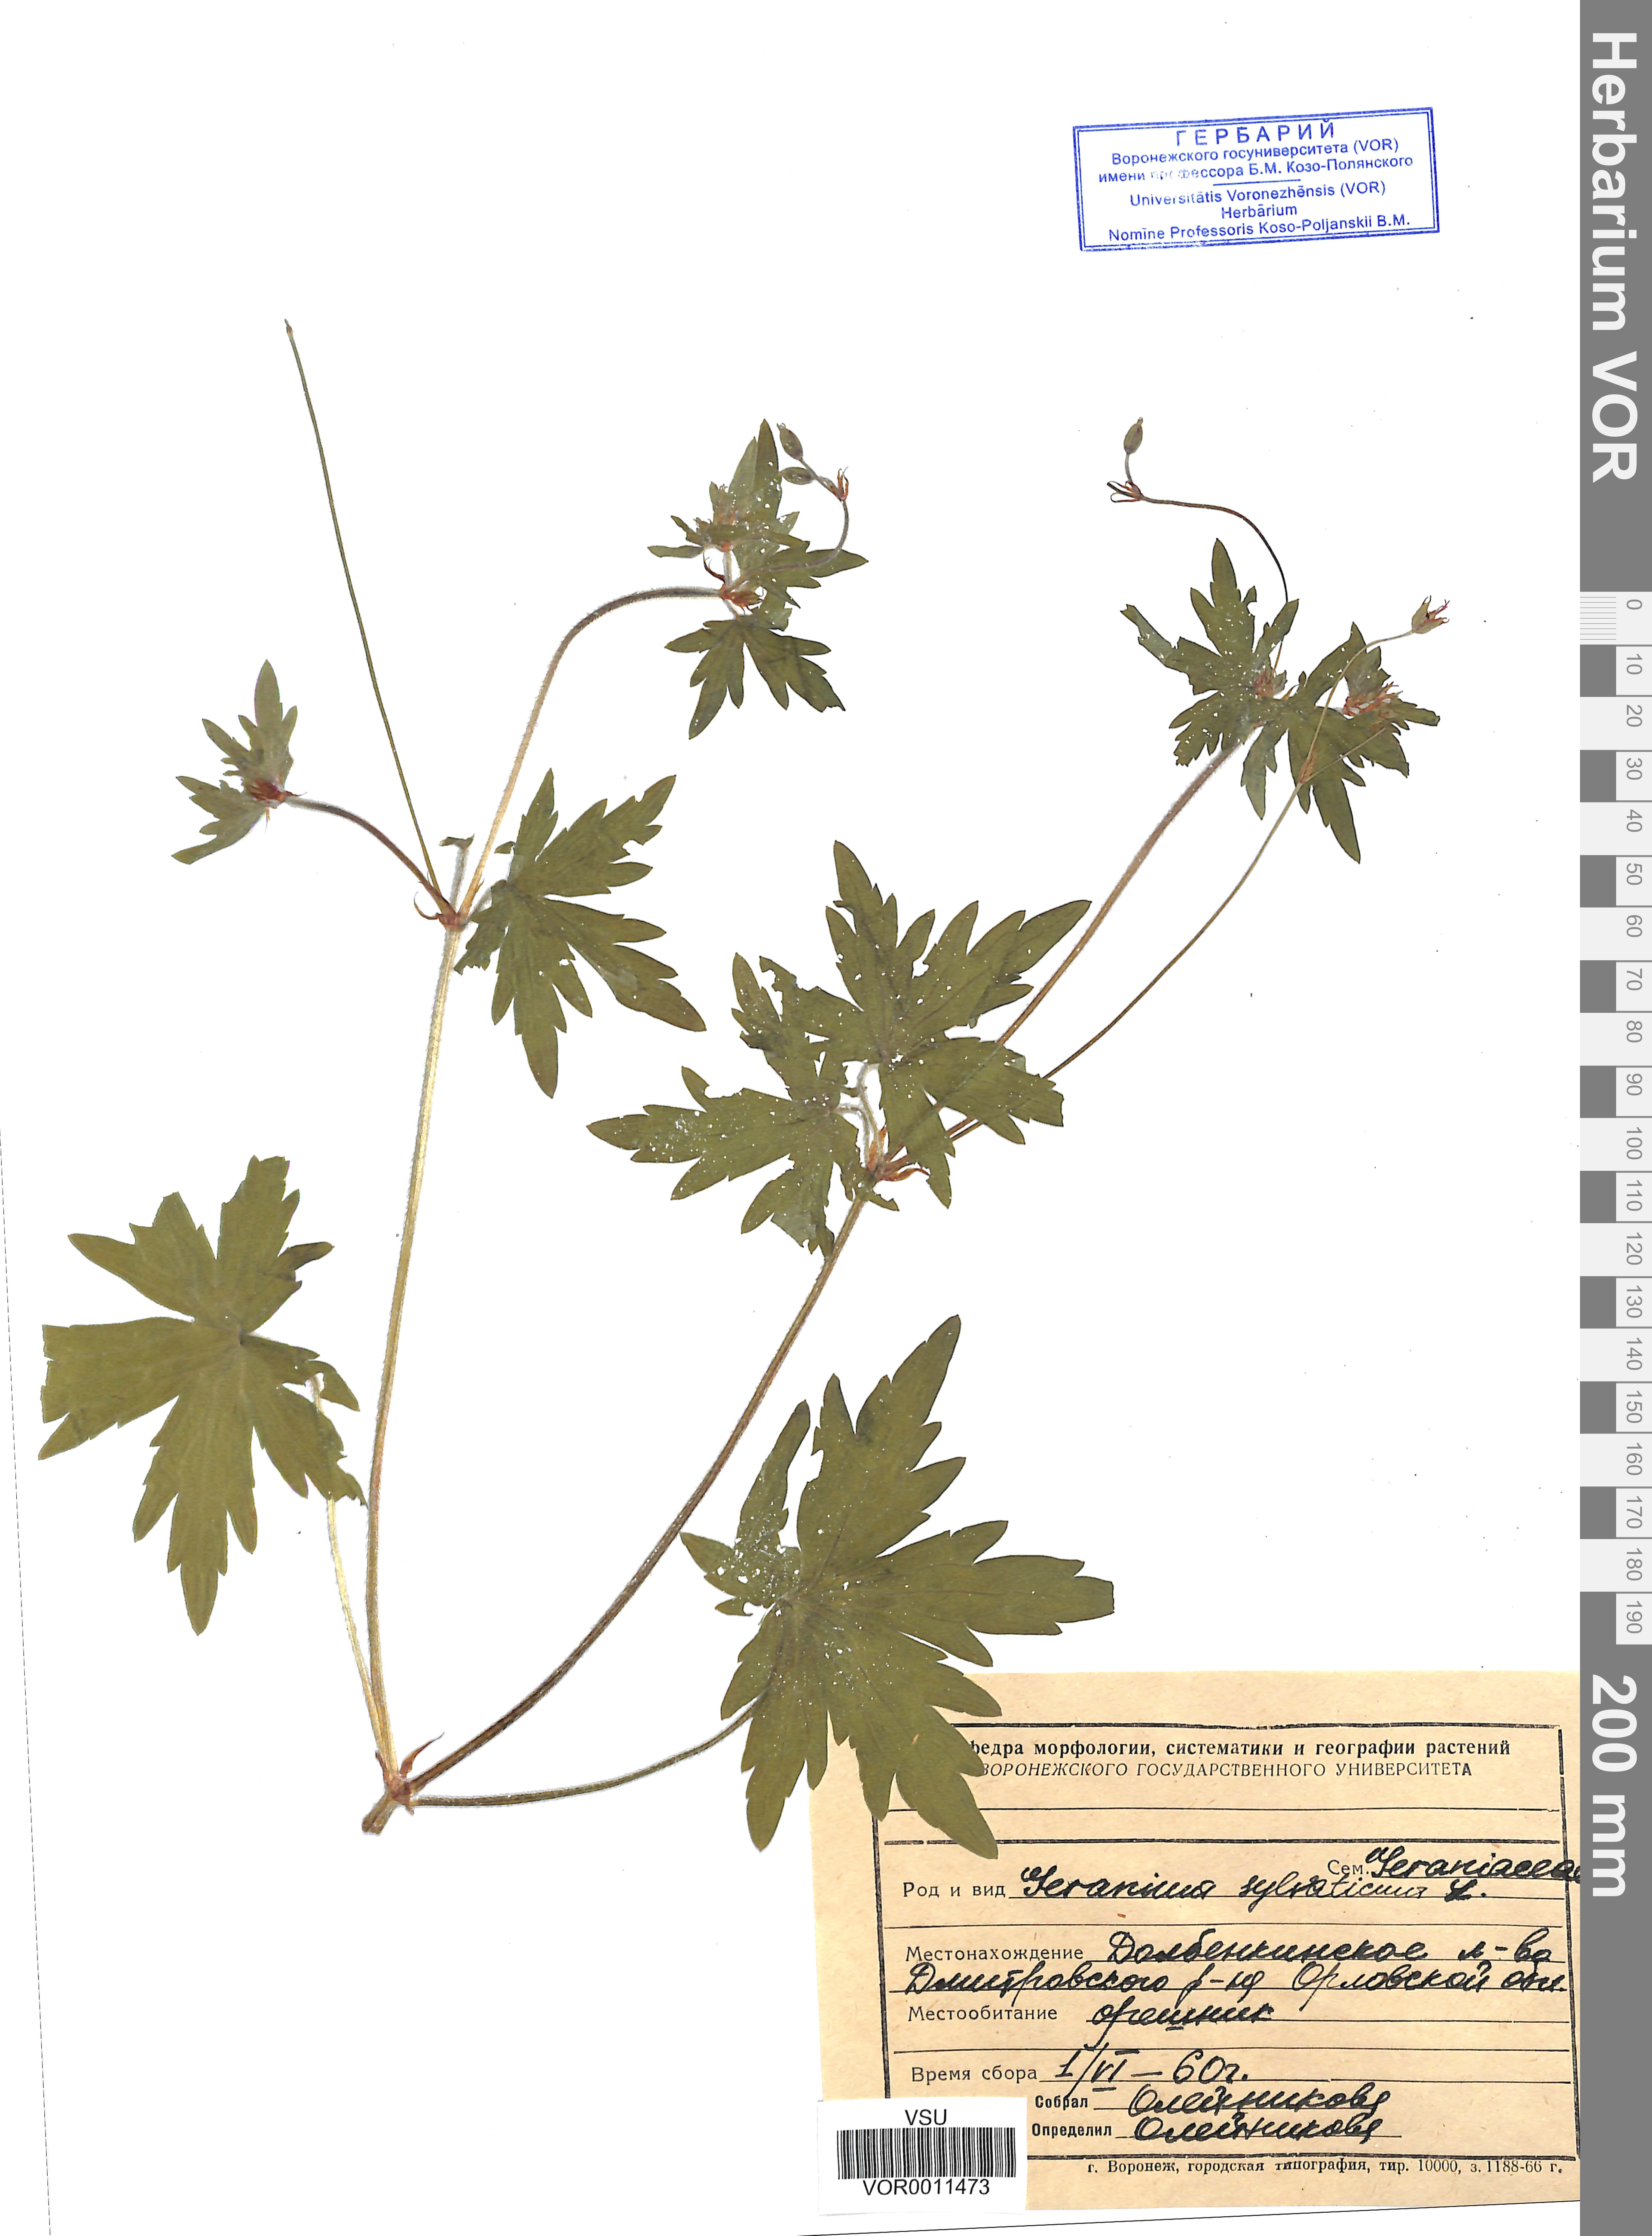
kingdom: Plantae
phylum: Tracheophyta
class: Magnoliopsida
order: Geraniales
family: Geraniaceae
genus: Geranium
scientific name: Geranium sibiricum
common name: Siberian crane's-bill
